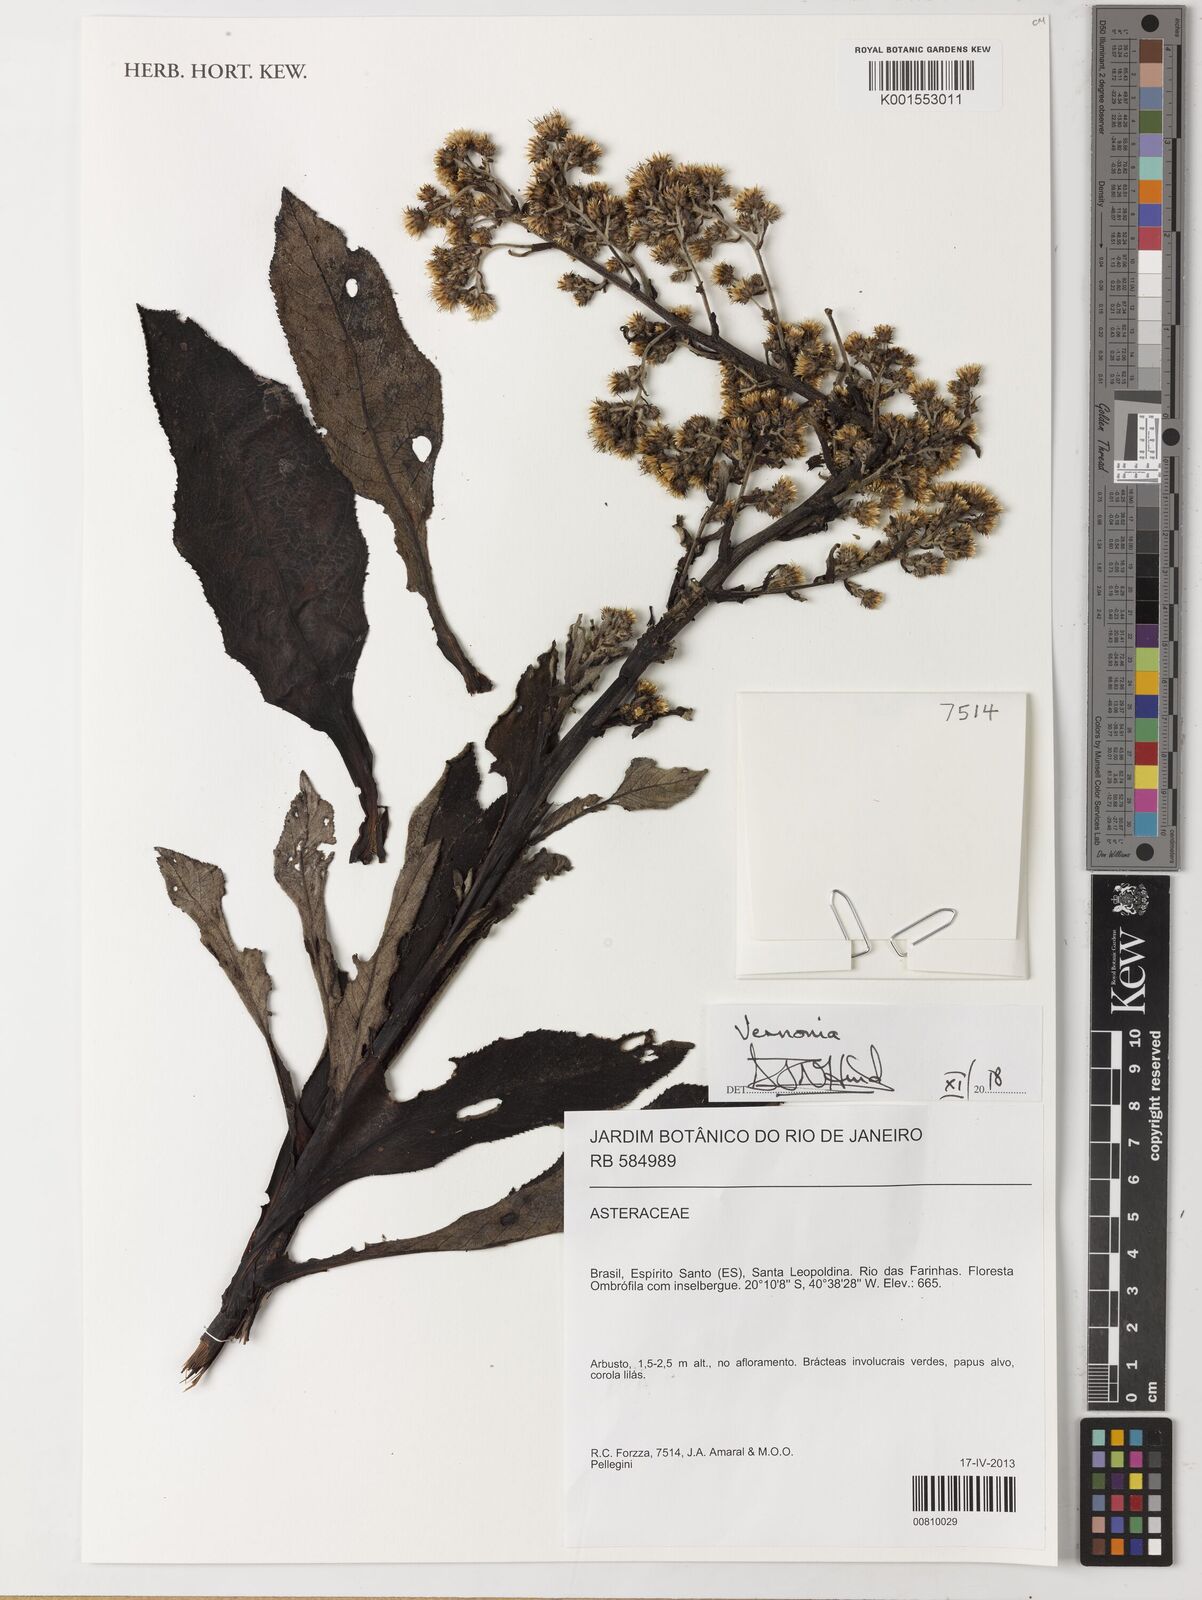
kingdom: Plantae
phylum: Tracheophyta
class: Magnoliopsida
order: Asterales
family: Asteraceae
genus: Cololobus
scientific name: Cololobus rupestris
